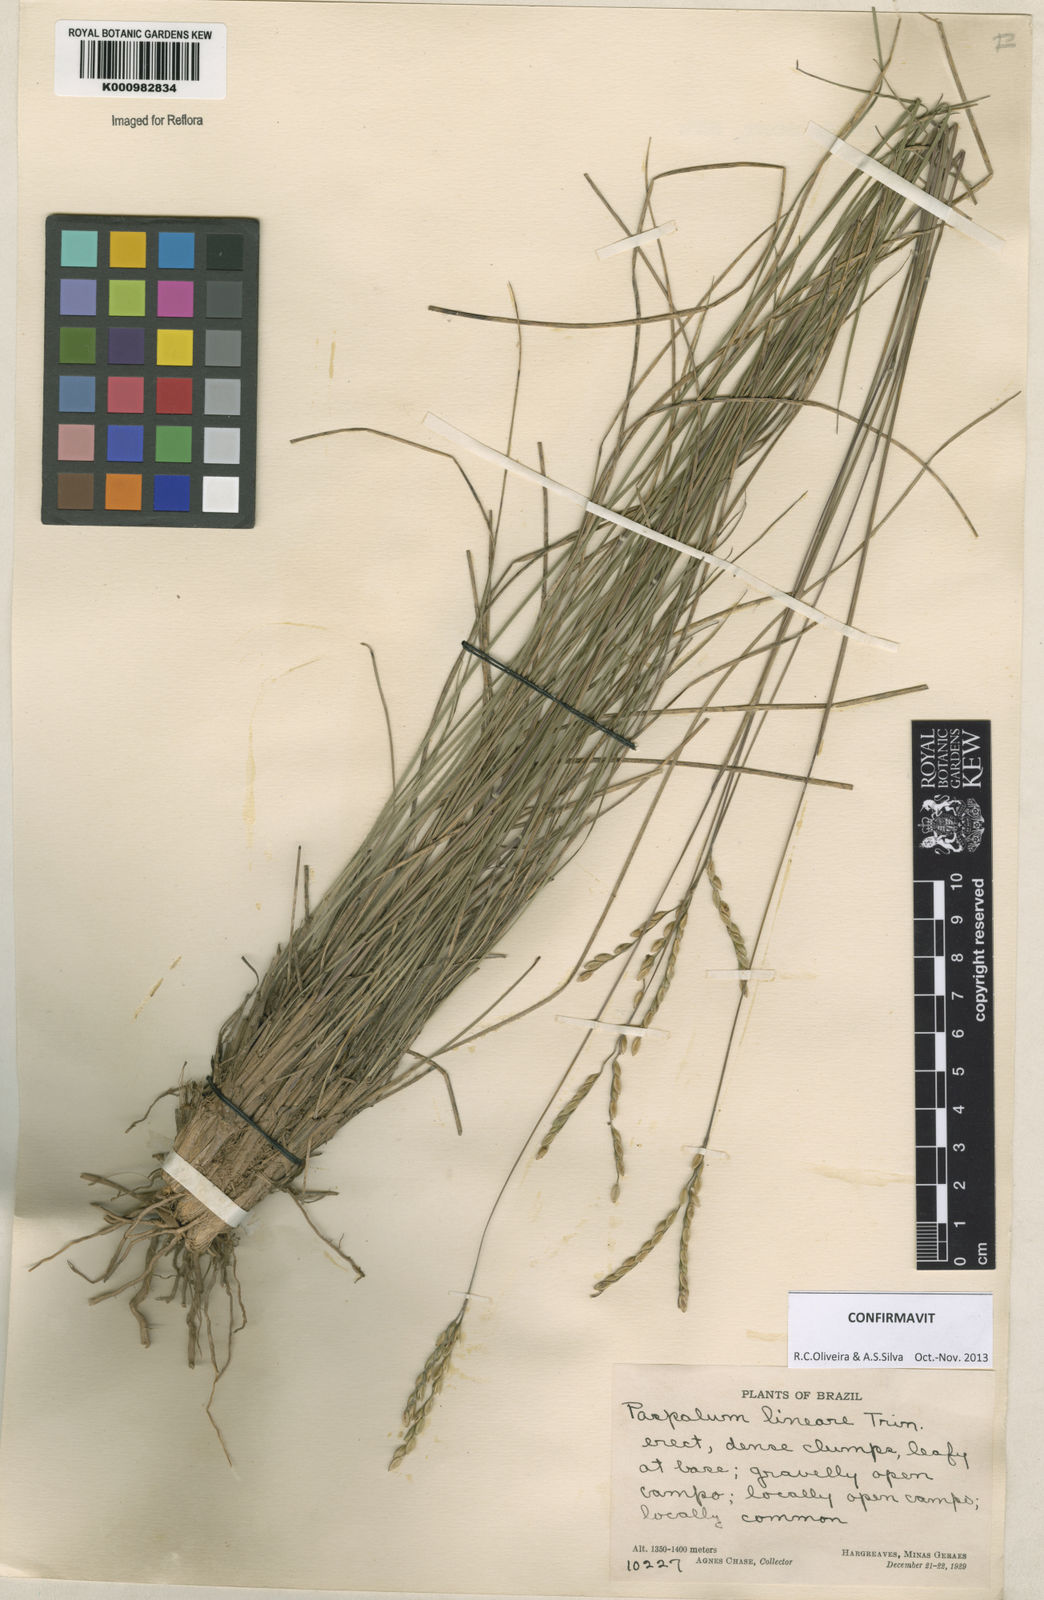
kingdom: Plantae
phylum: Tracheophyta
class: Liliopsida
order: Poales
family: Poaceae
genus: Paspalum
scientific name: Paspalum lineare
